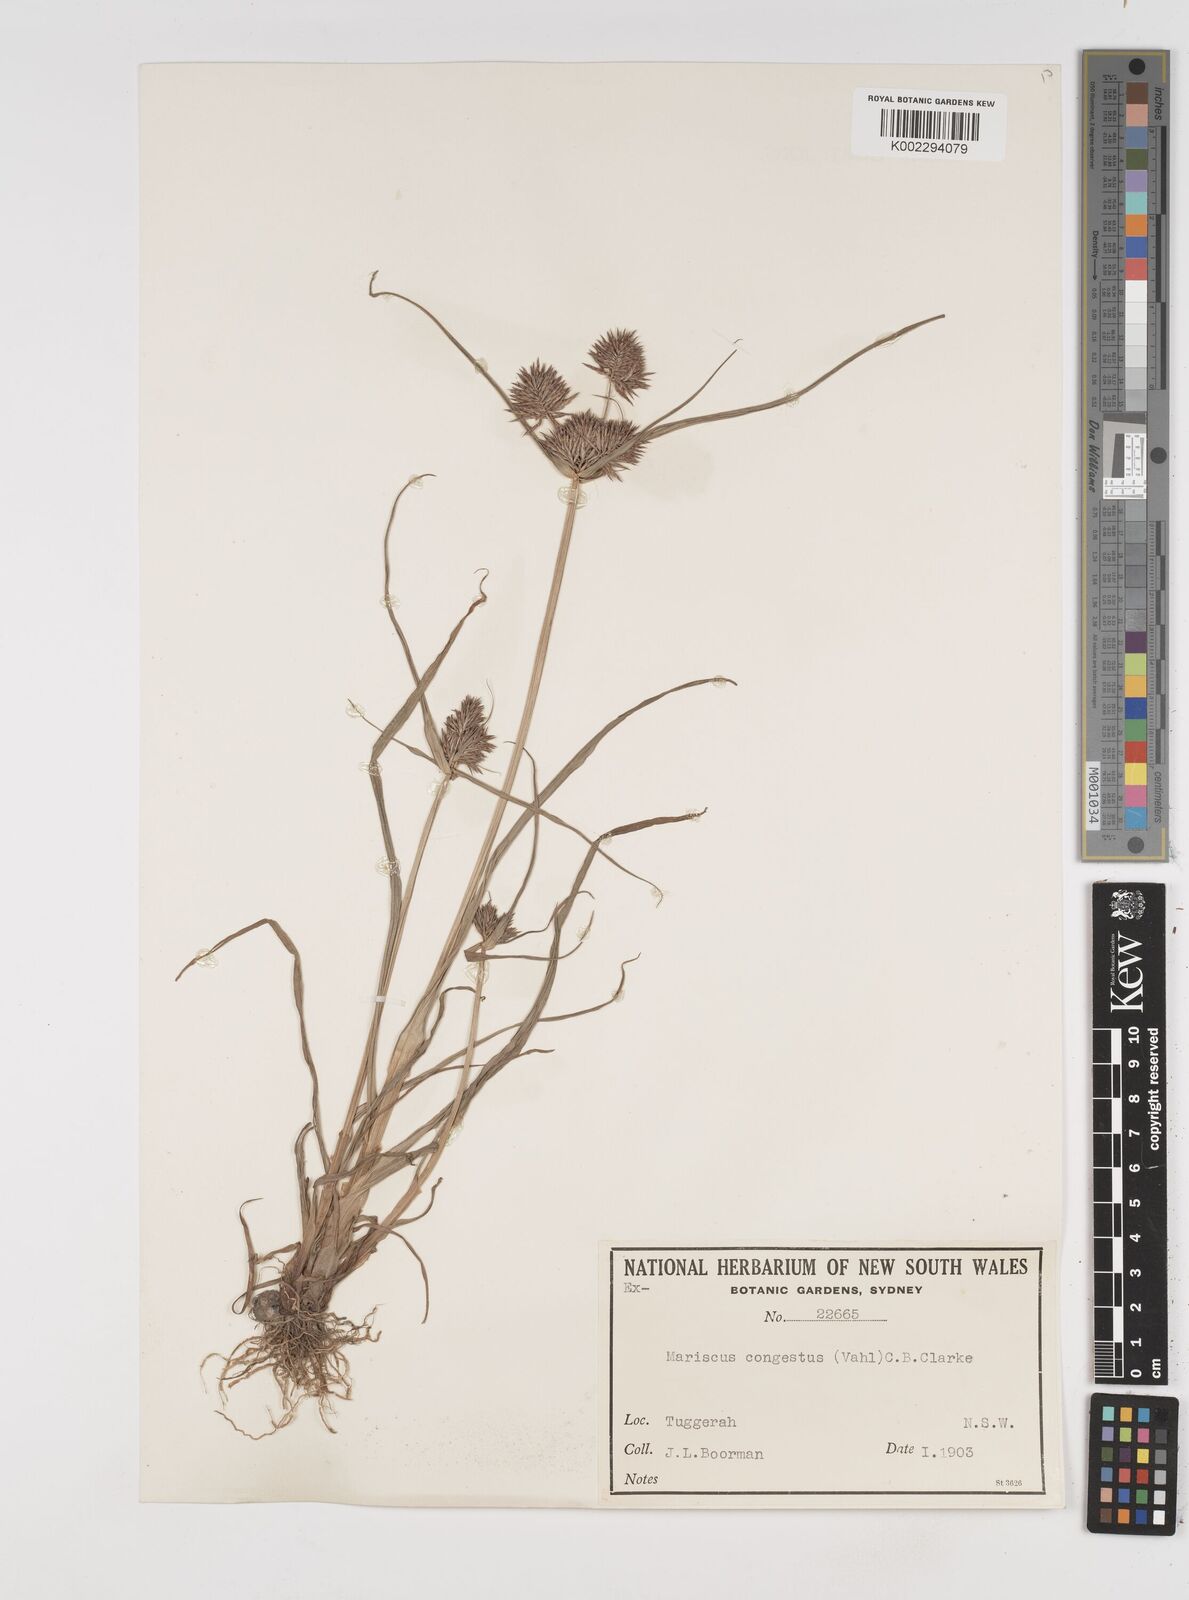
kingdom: Plantae
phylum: Tracheophyta
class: Liliopsida
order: Poales
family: Cyperaceae
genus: Cyperus
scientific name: Cyperus congestus
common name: Dense flat sedge
